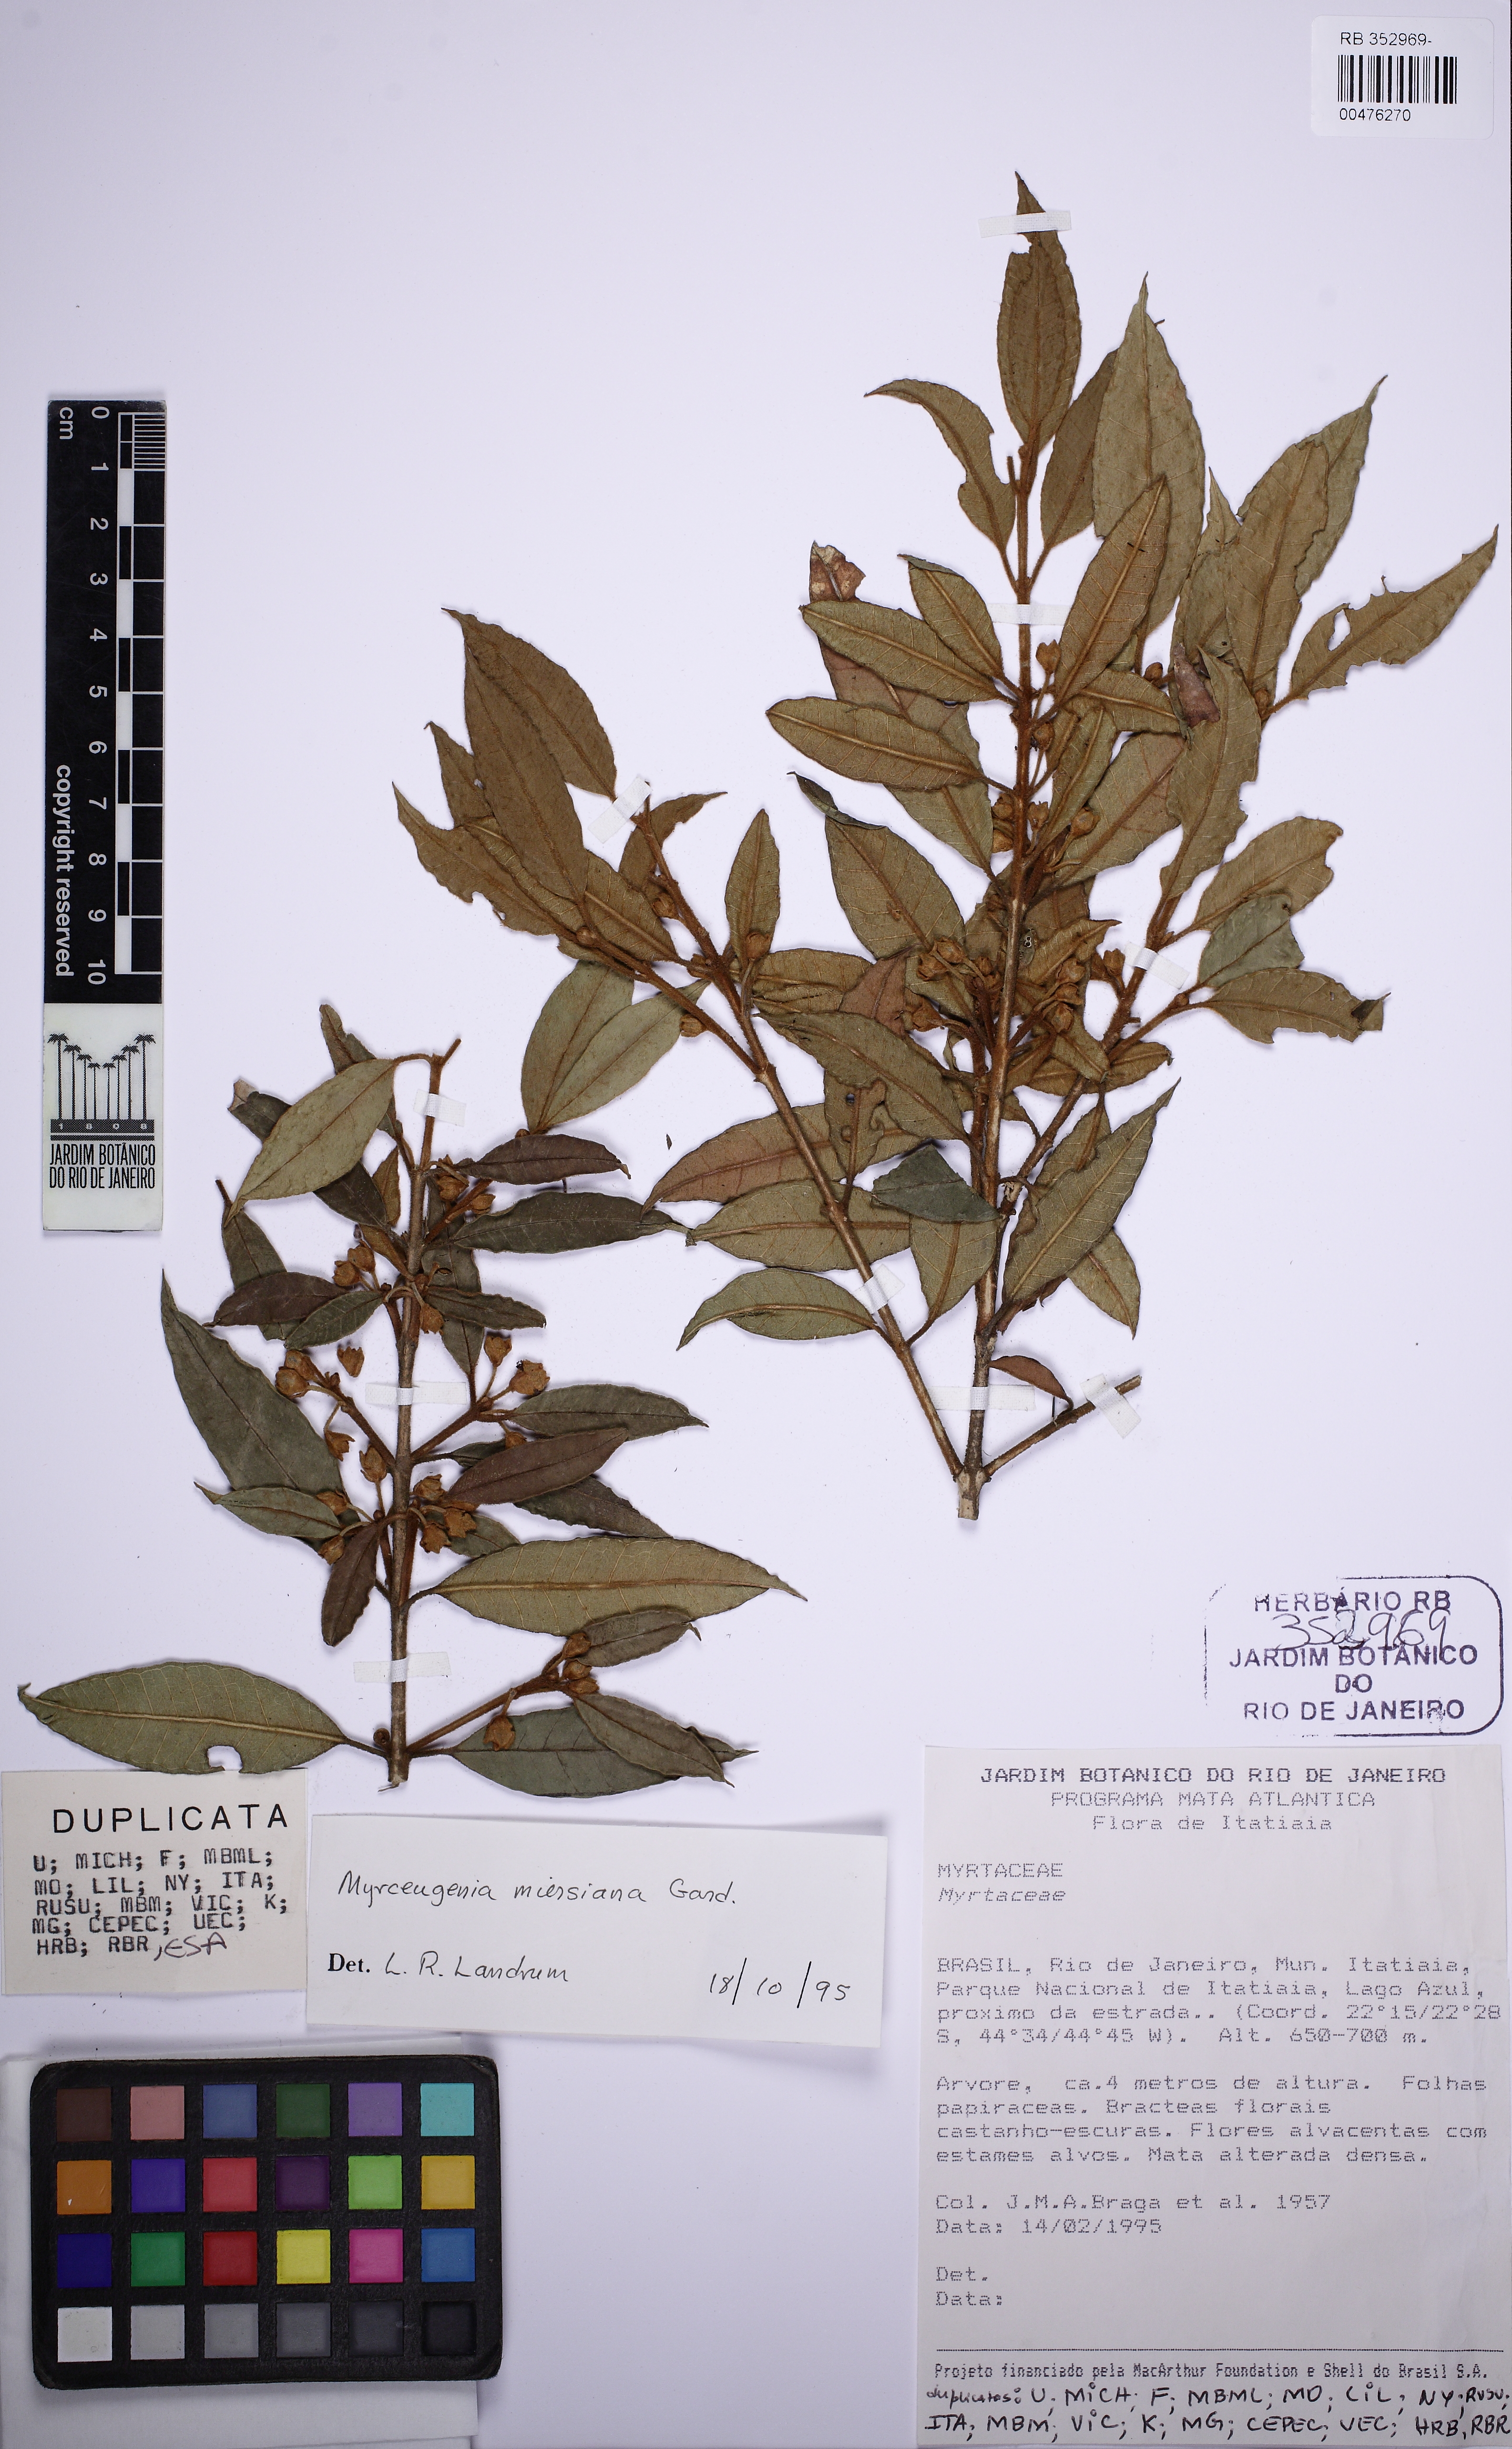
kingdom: Plantae
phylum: Tracheophyta
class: Magnoliopsida
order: Myrtales
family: Myrtaceae
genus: Myrceugenia
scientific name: Myrceugenia miersiana
